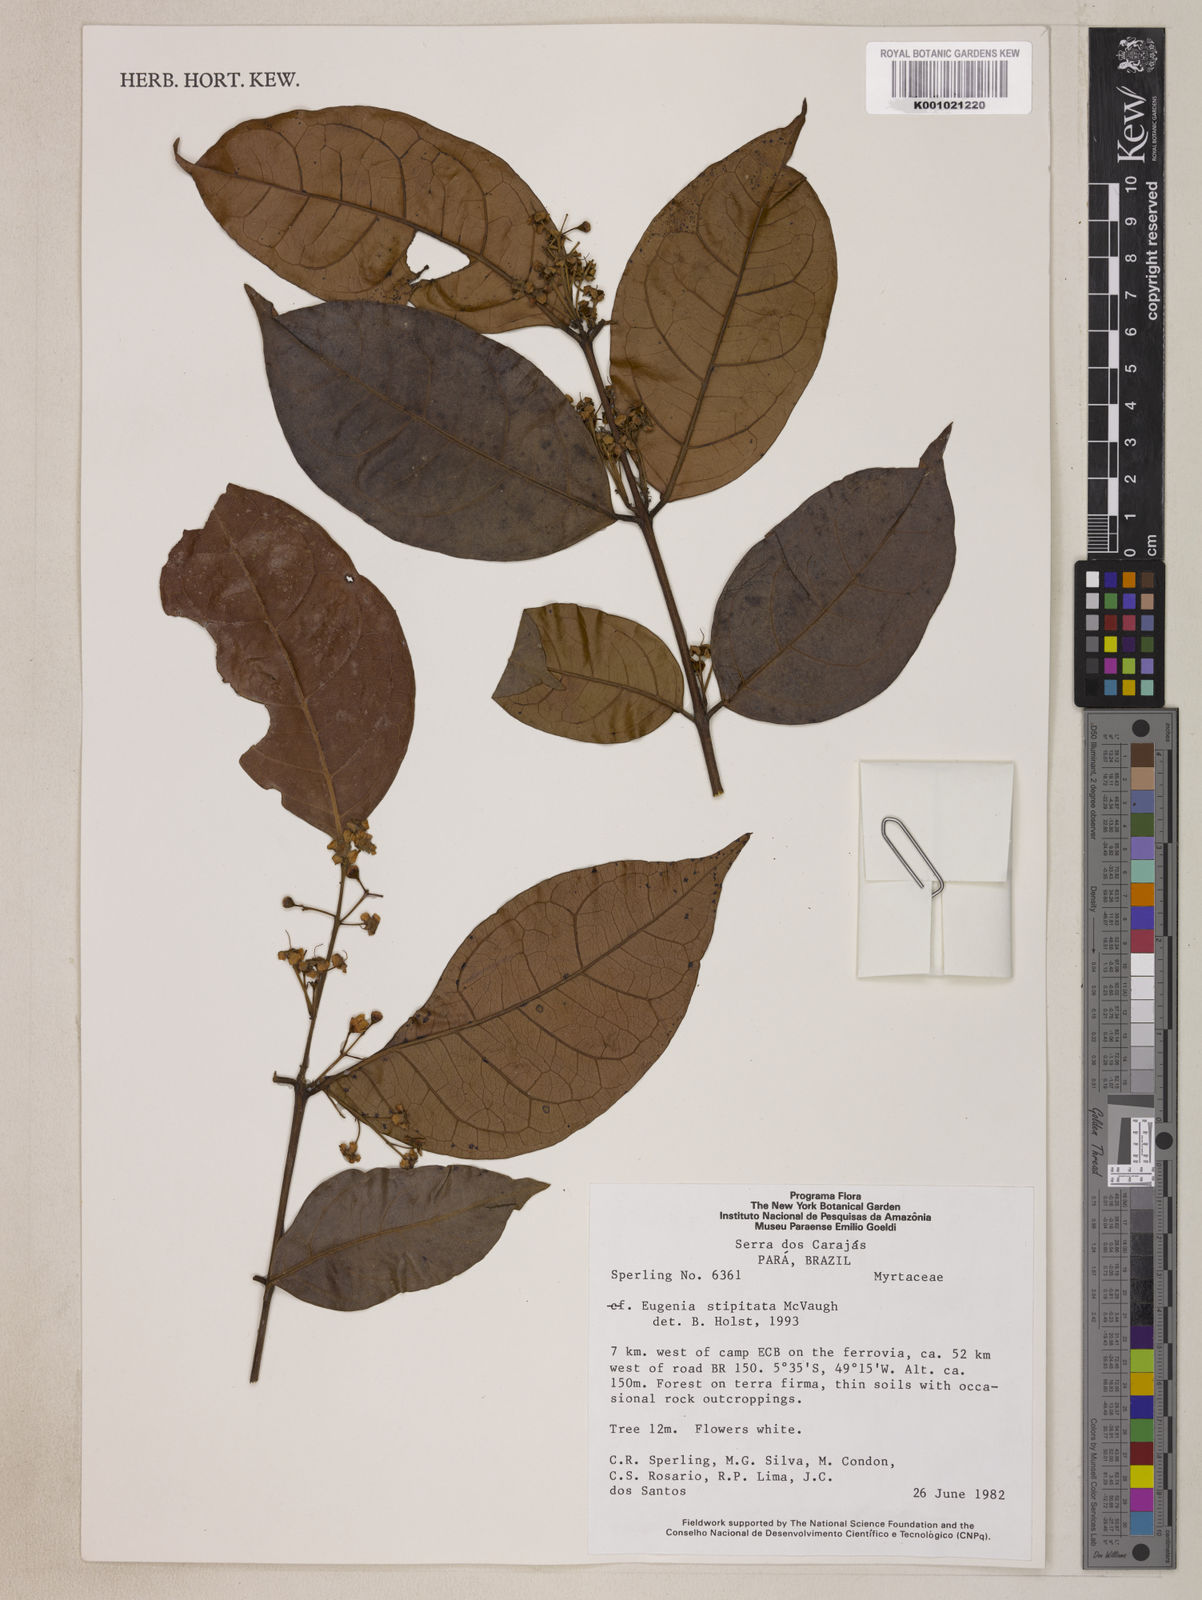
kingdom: Plantae
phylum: Tracheophyta
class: Magnoliopsida
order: Myrtales
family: Myrtaceae
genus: Eugenia
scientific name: Eugenia stipitata
